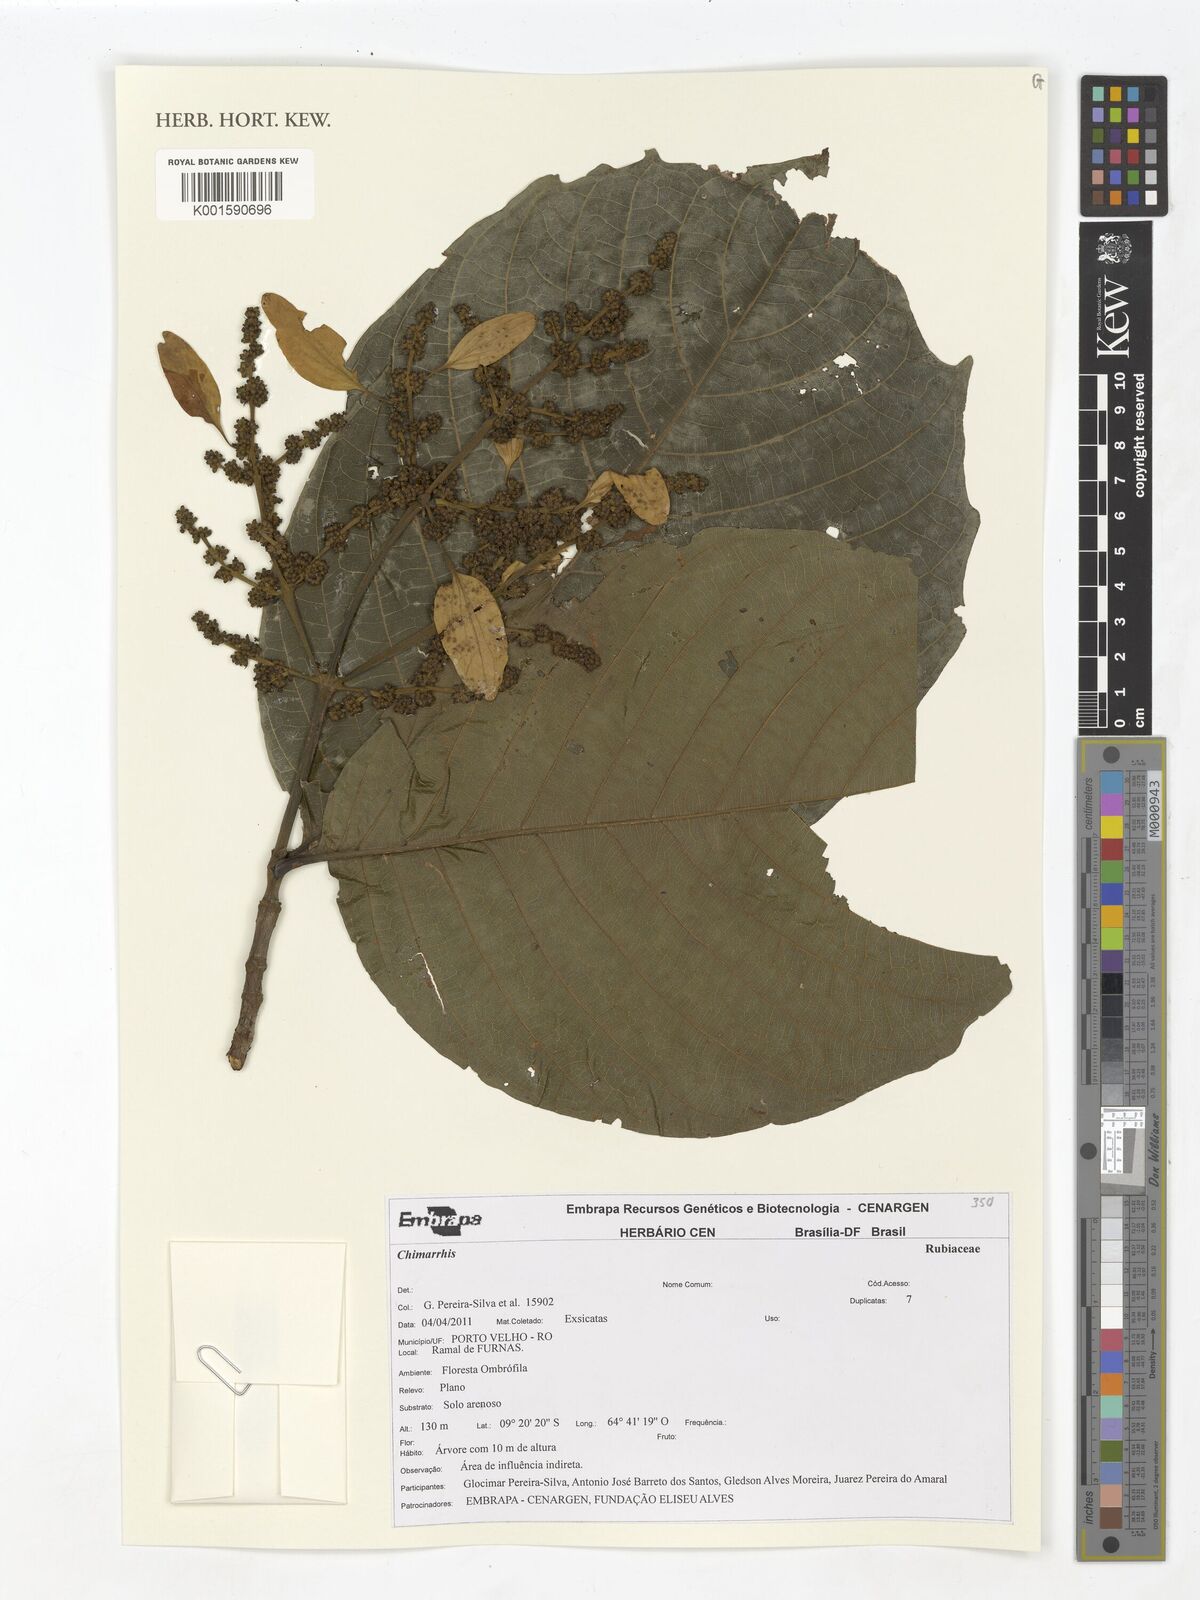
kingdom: Plantae
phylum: Tracheophyta
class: Magnoliopsida
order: Gentianales
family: Rubiaceae
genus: Chimarrhis
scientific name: Chimarrhis
